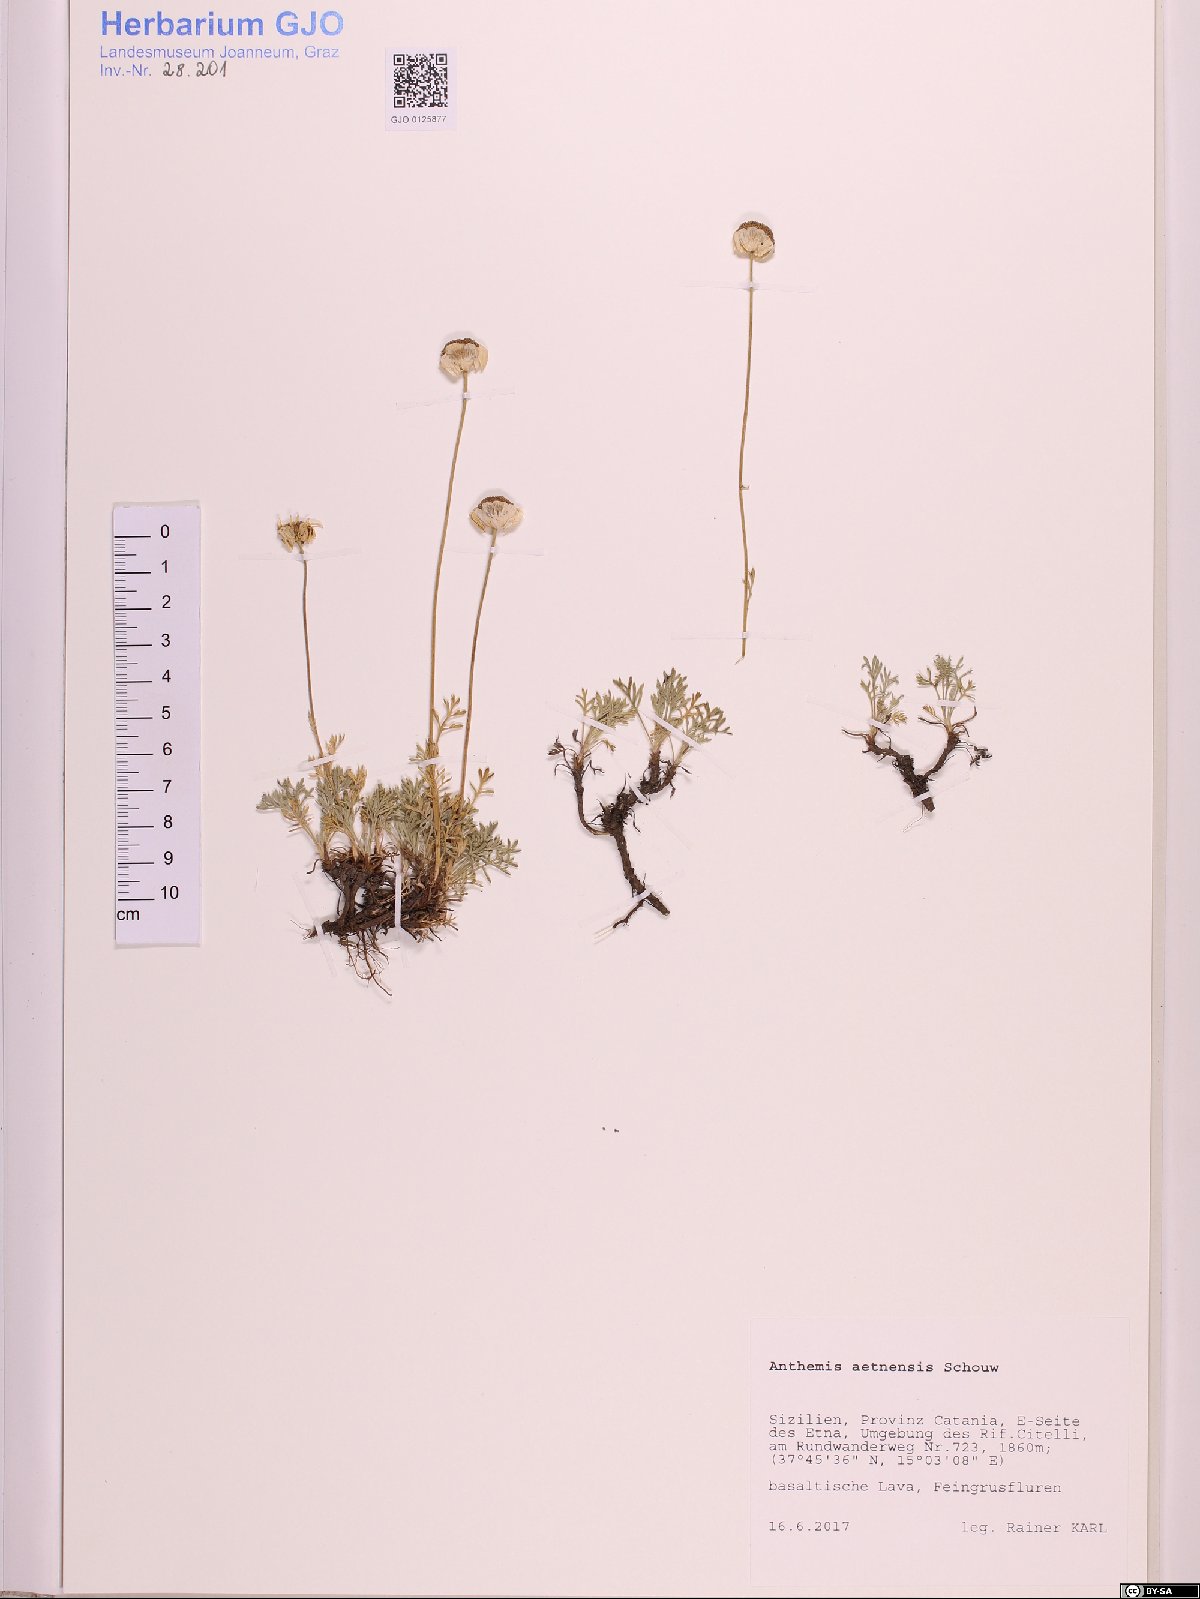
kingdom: Plantae
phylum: Tracheophyta
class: Magnoliopsida
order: Asterales
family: Asteraceae
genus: Anthemis
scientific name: Anthemis aetnensis
